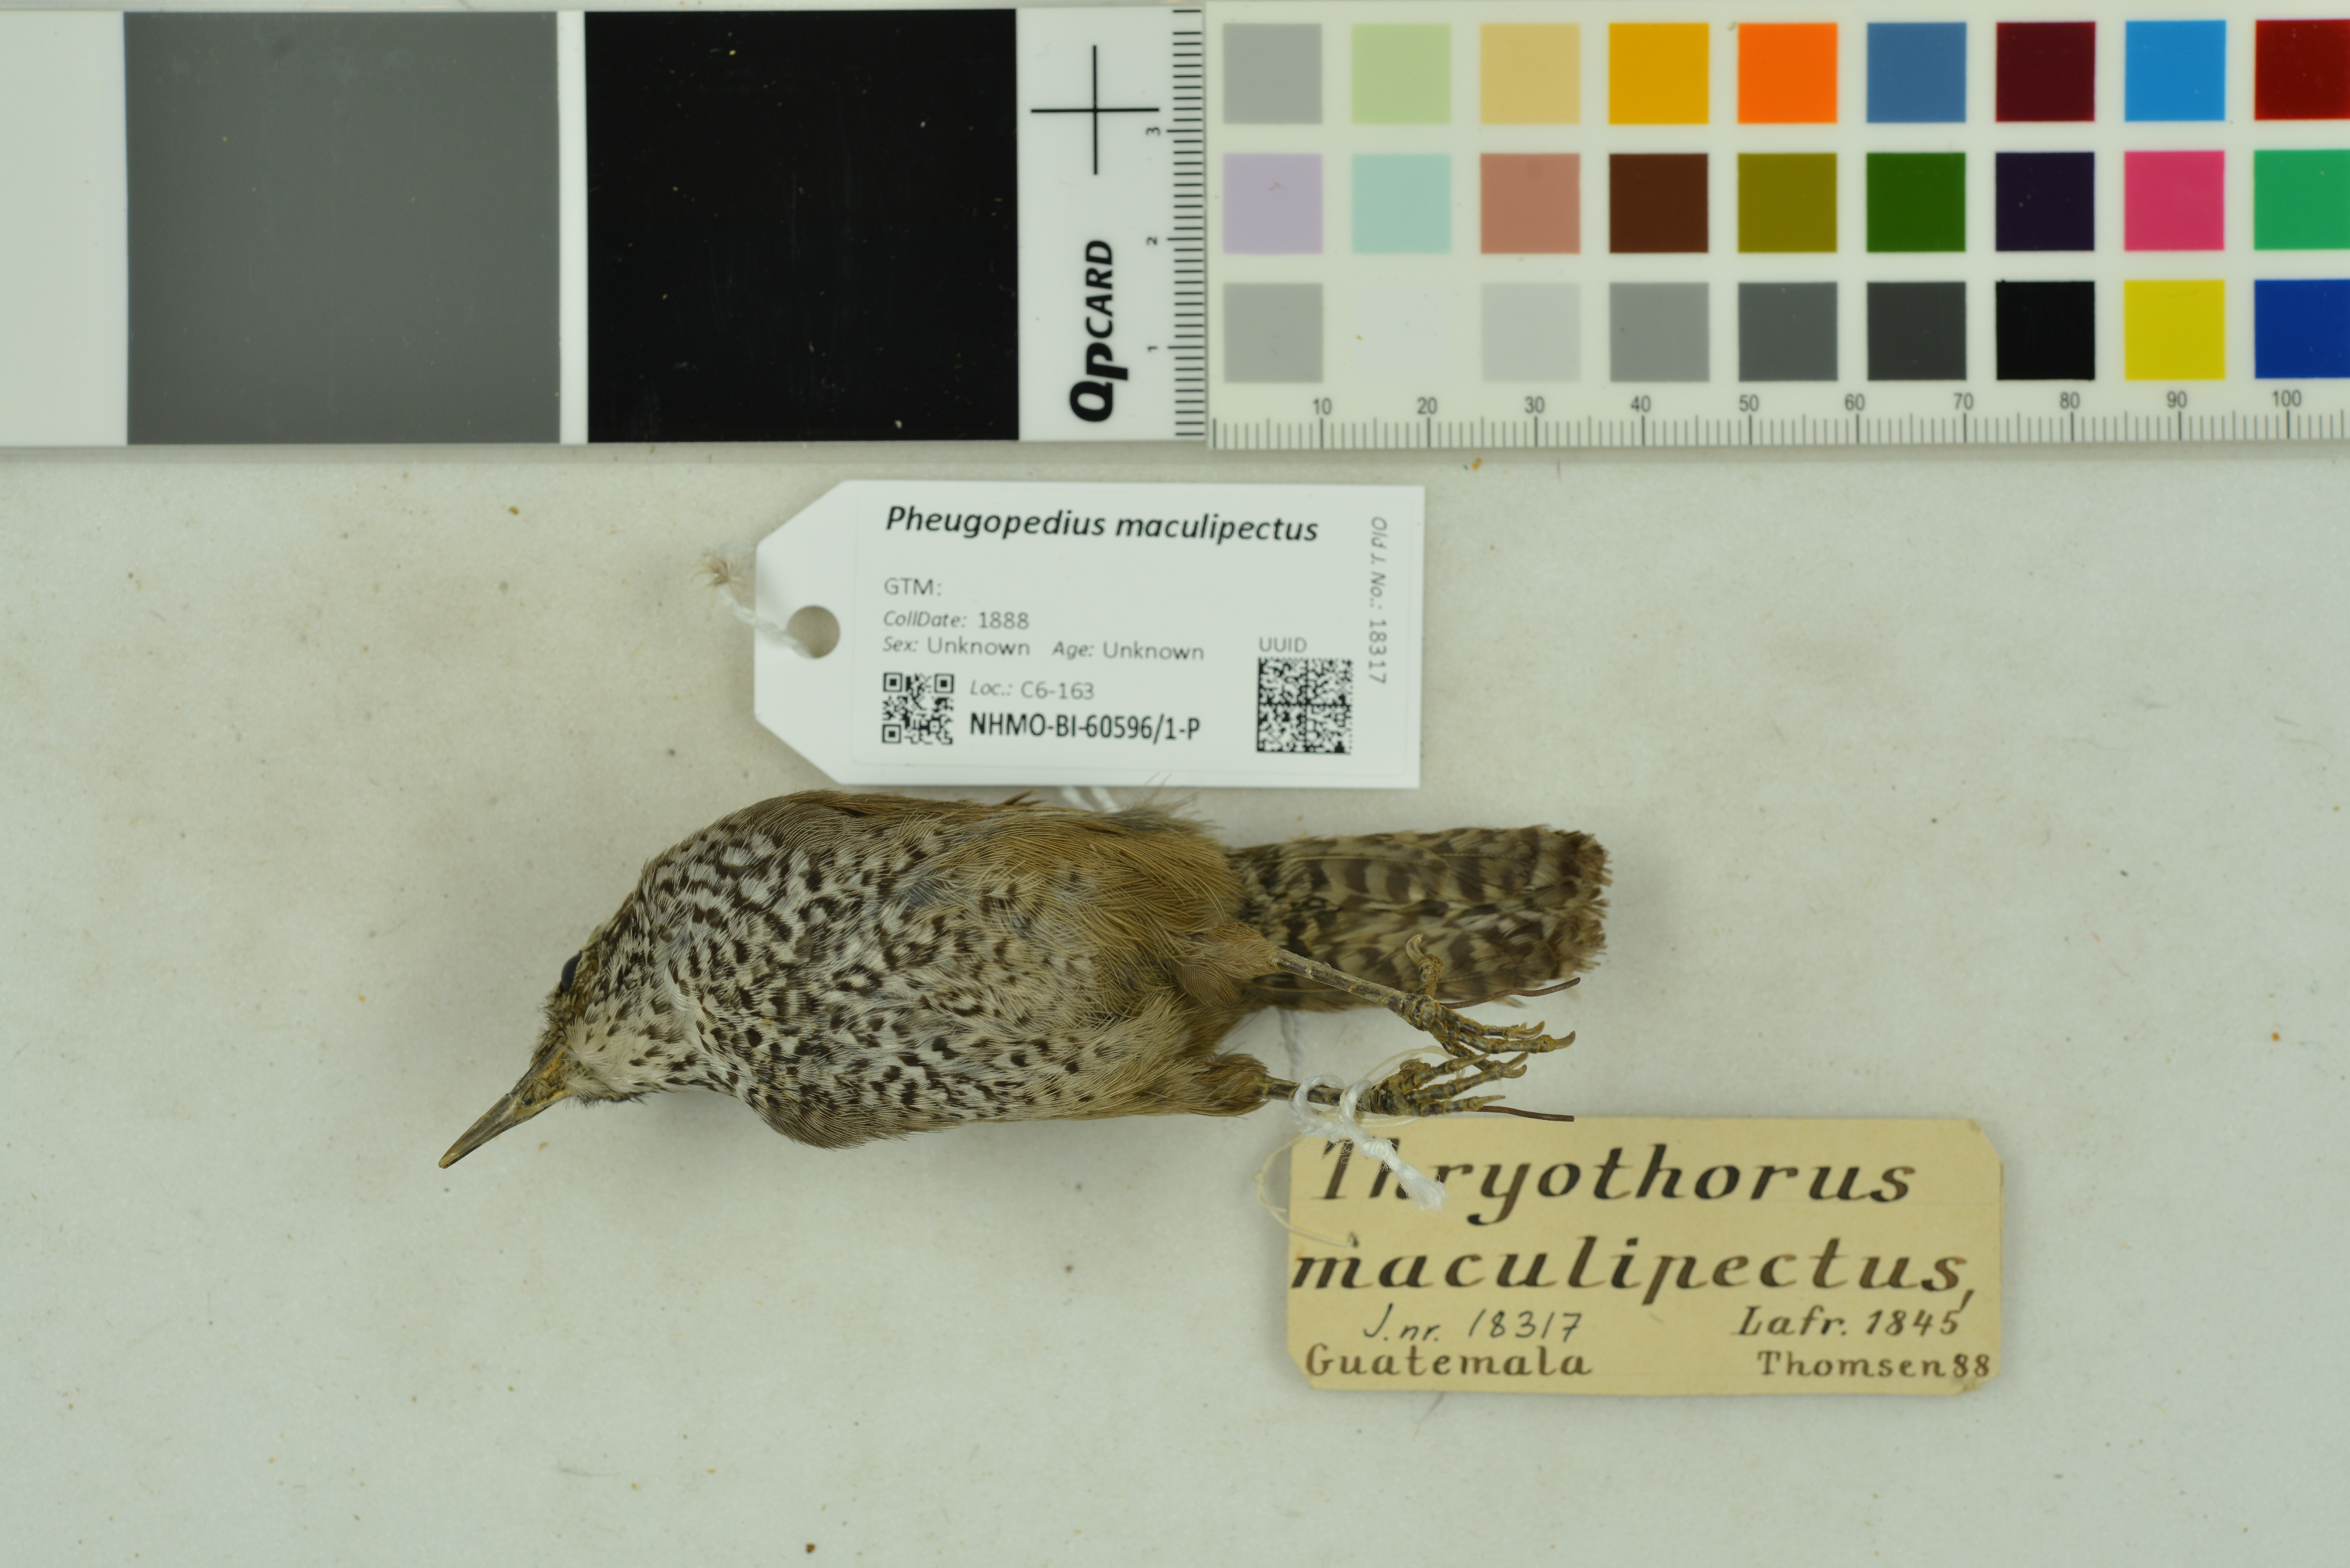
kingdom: Animalia
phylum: Chordata
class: Aves
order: Passeriformes
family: Troglodytidae
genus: Pheugopedius
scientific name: Pheugopedius maculipectus
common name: Spot-breasted wren
